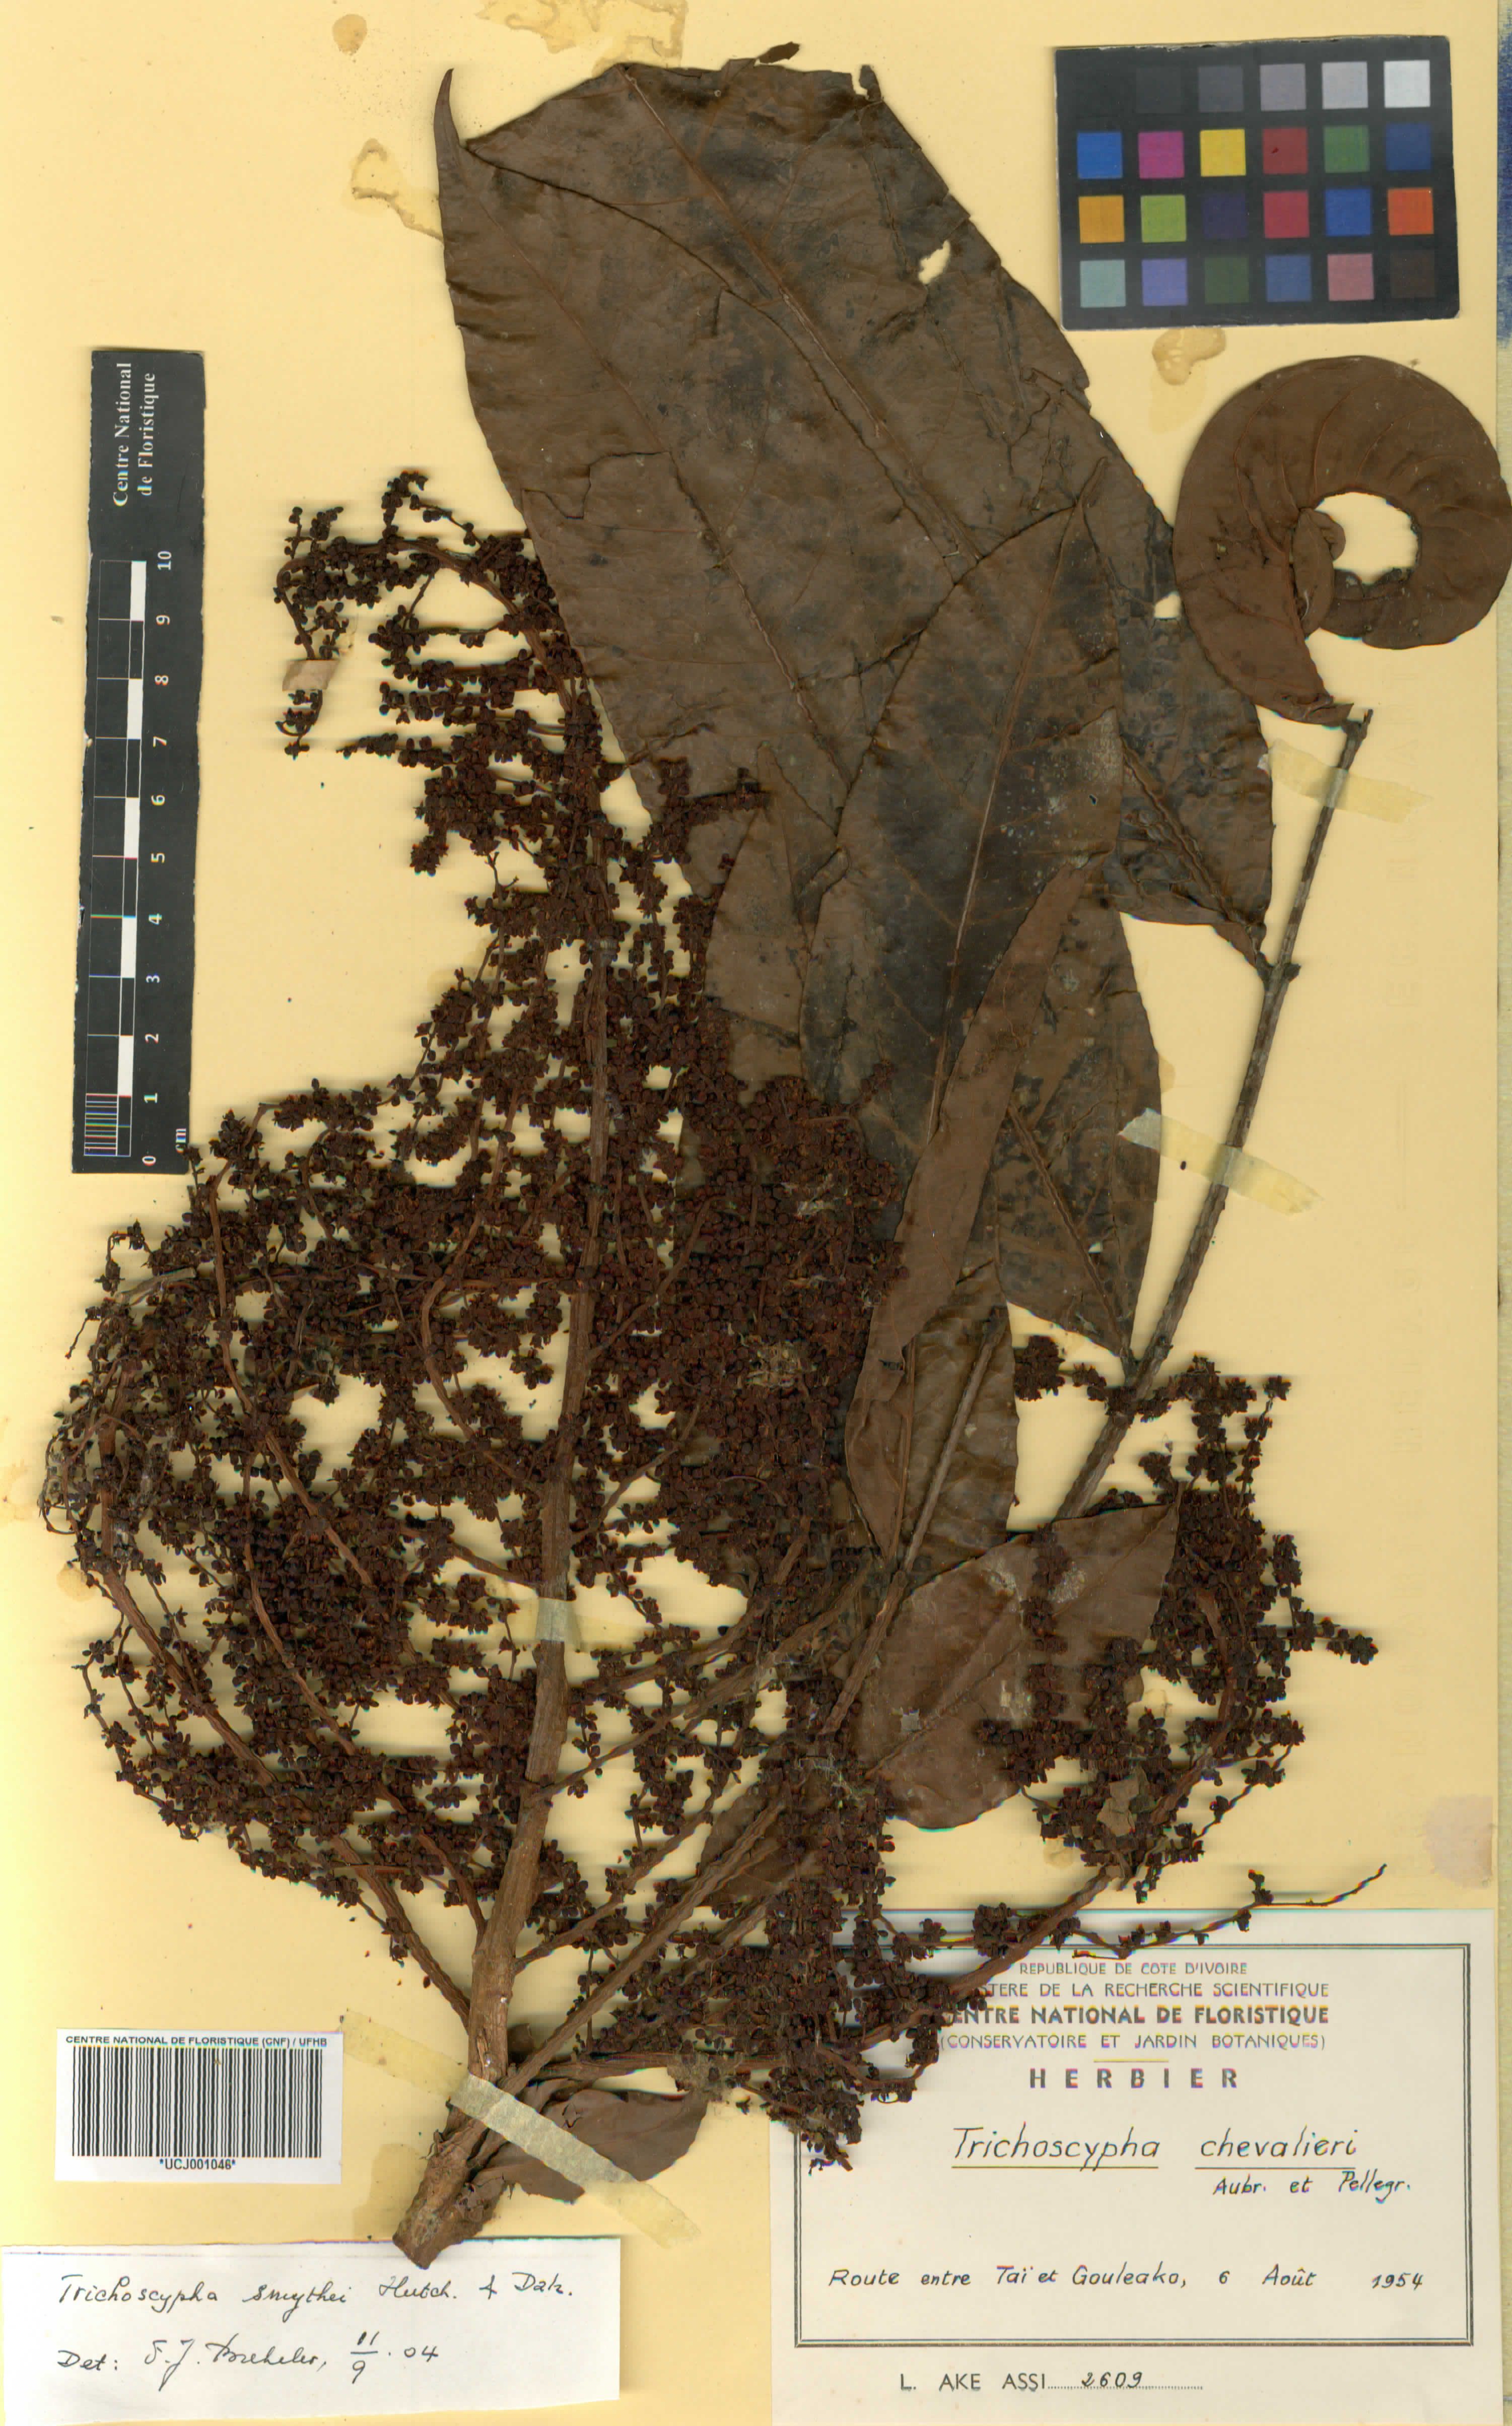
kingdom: Plantae
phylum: Tracheophyta
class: Magnoliopsida
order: Sapindales
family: Anacardiaceae
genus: Trichoscypha
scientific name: Trichoscypha lucens
